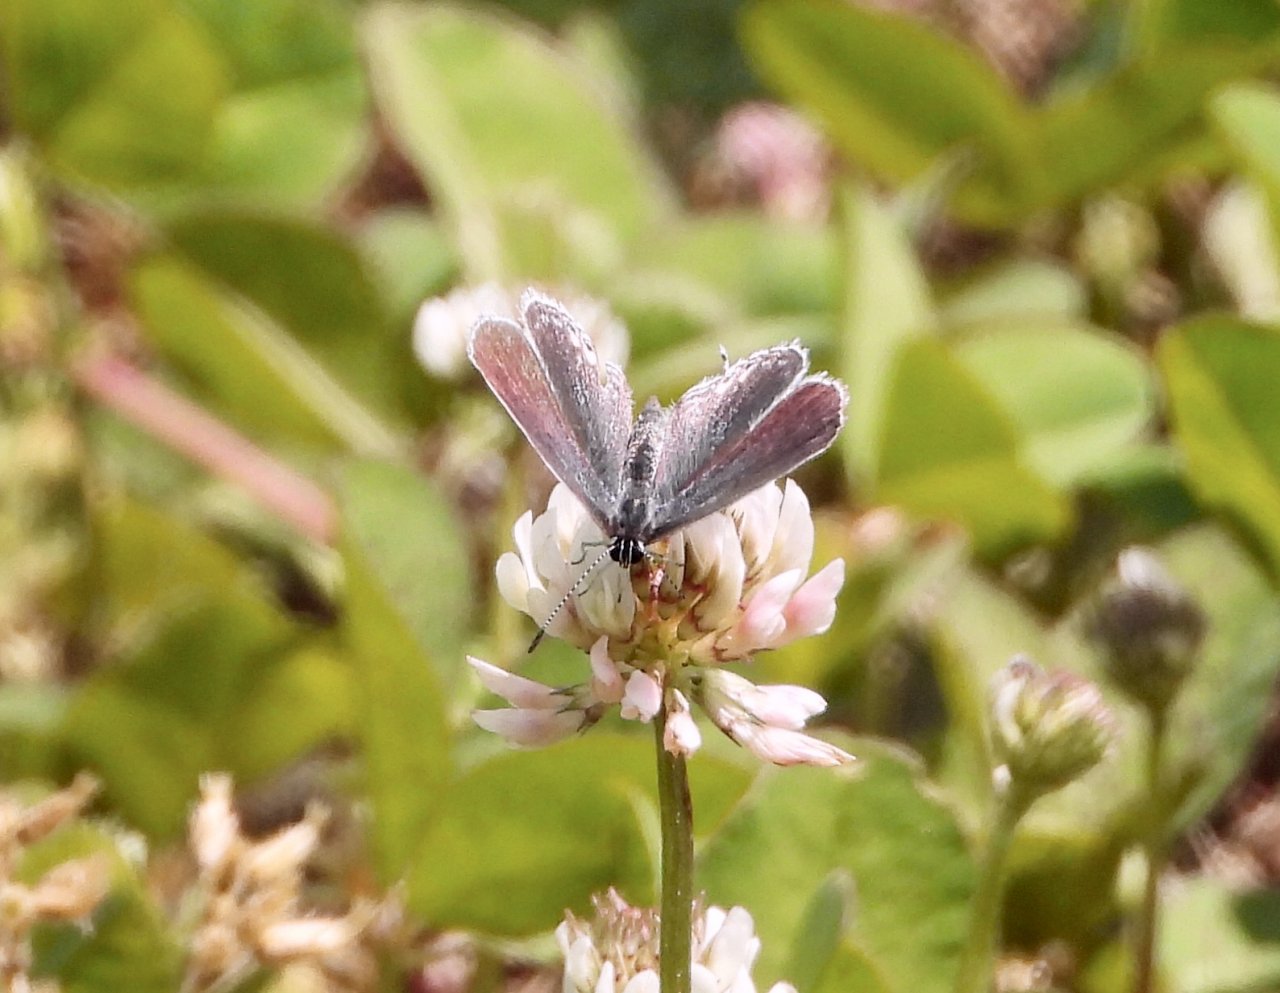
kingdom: Animalia
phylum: Arthropoda
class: Insecta
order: Lepidoptera
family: Lycaenidae
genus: Elkalyce
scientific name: Elkalyce comyntas
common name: Eastern Tailed-Blue
